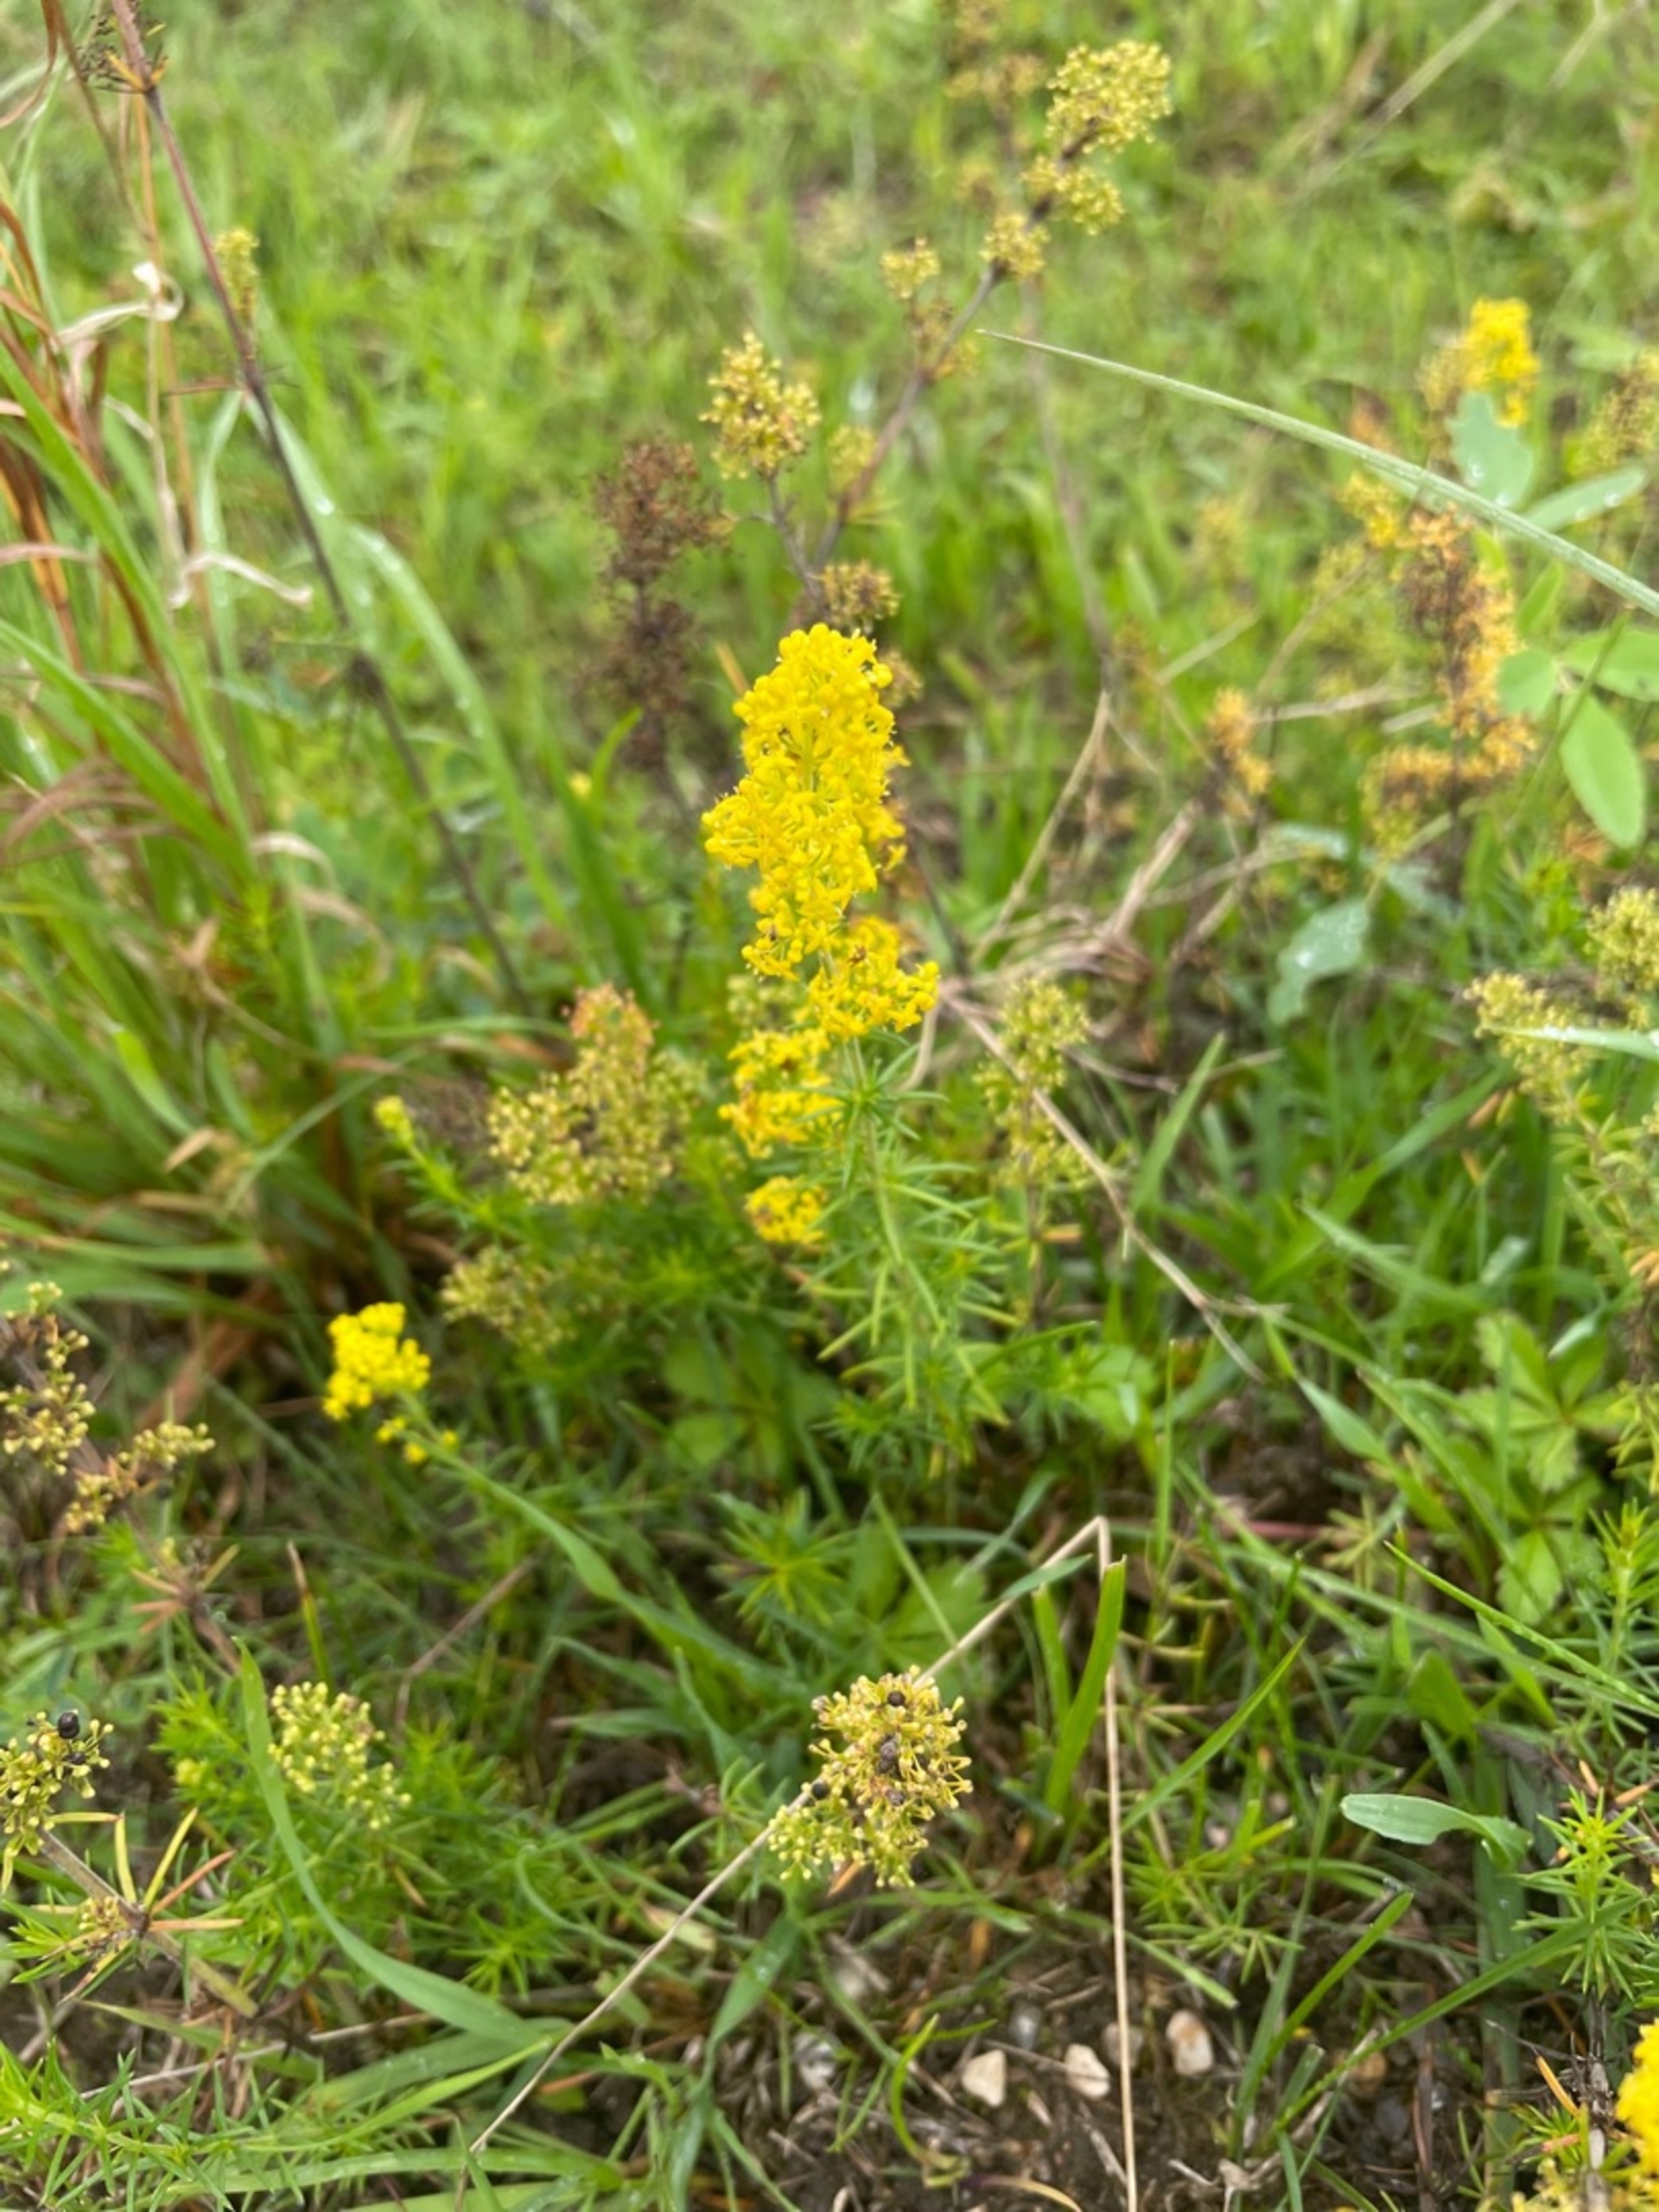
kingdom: Plantae
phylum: Tracheophyta
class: Magnoliopsida
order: Gentianales
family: Rubiaceae
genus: Galium
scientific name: Galium verum
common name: Gul snerre
